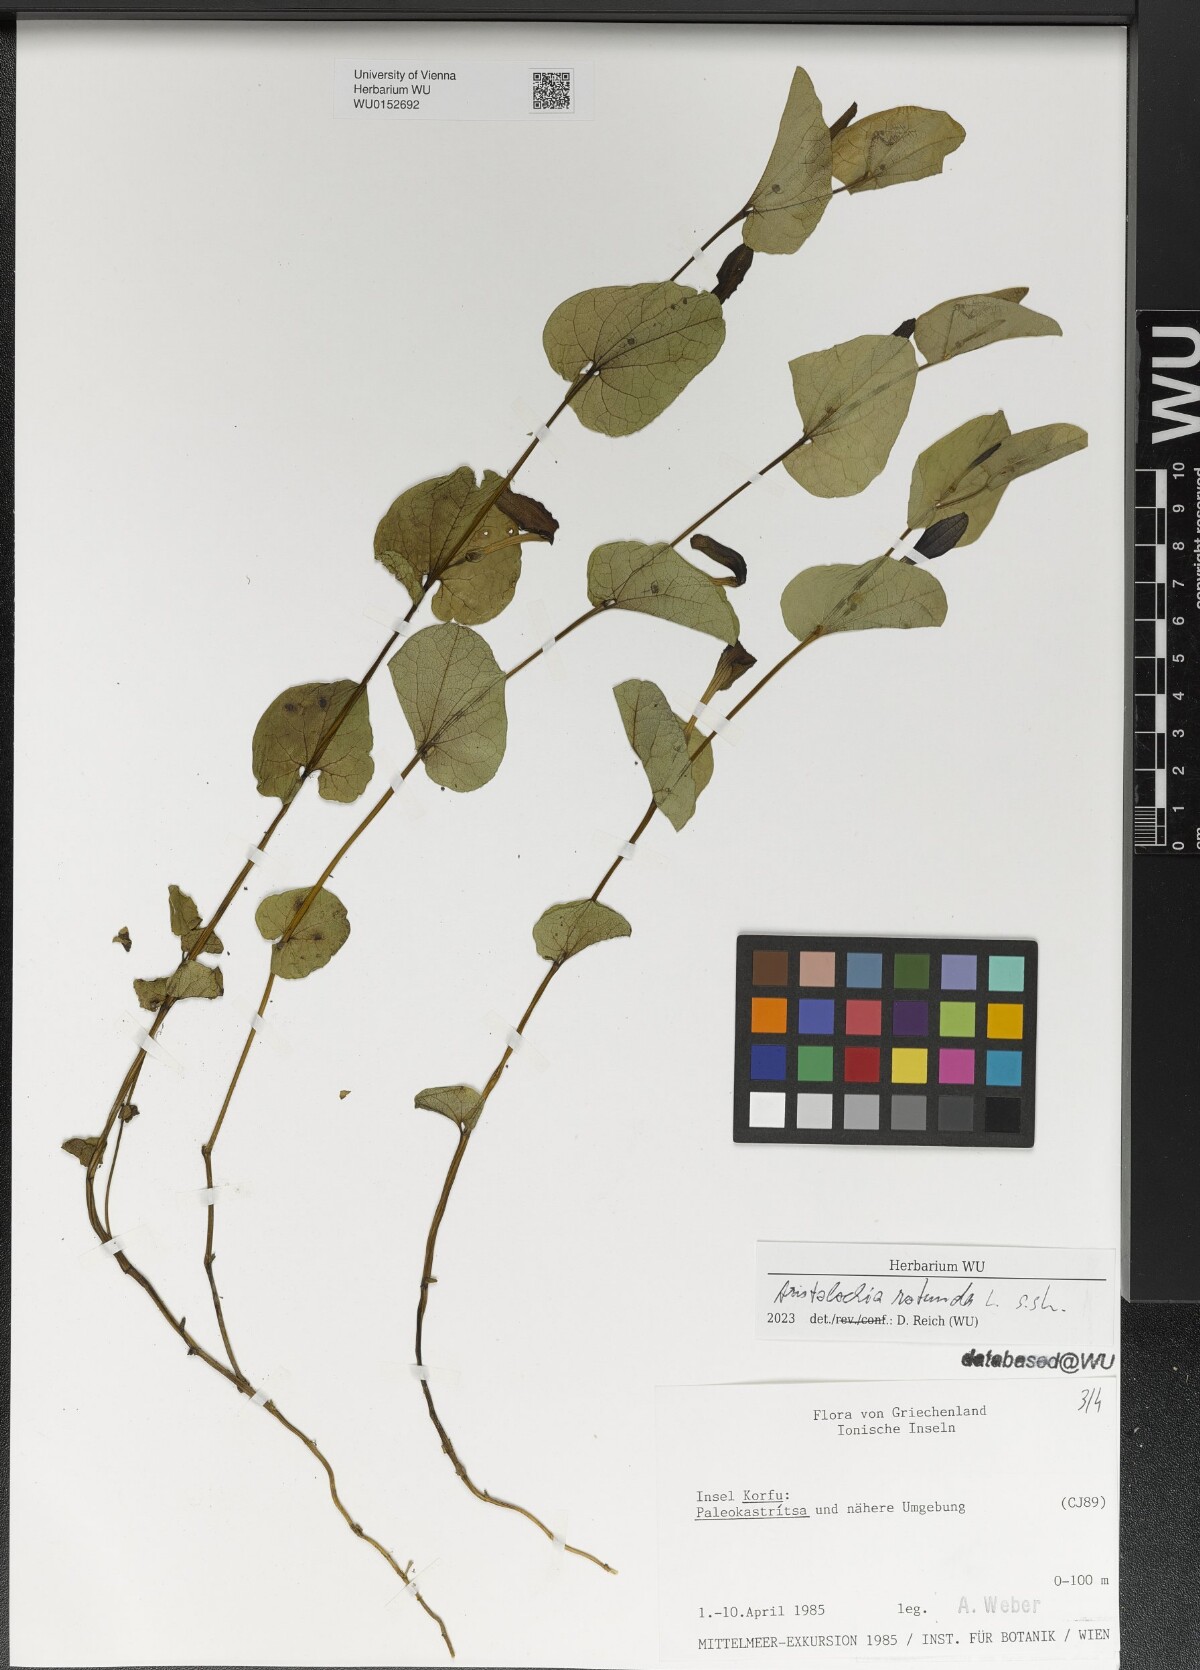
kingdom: Plantae
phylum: Tracheophyta
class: Magnoliopsida
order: Piperales
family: Aristolochiaceae
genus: Aristolochia
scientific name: Aristolochia rotunda
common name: Smearwort
